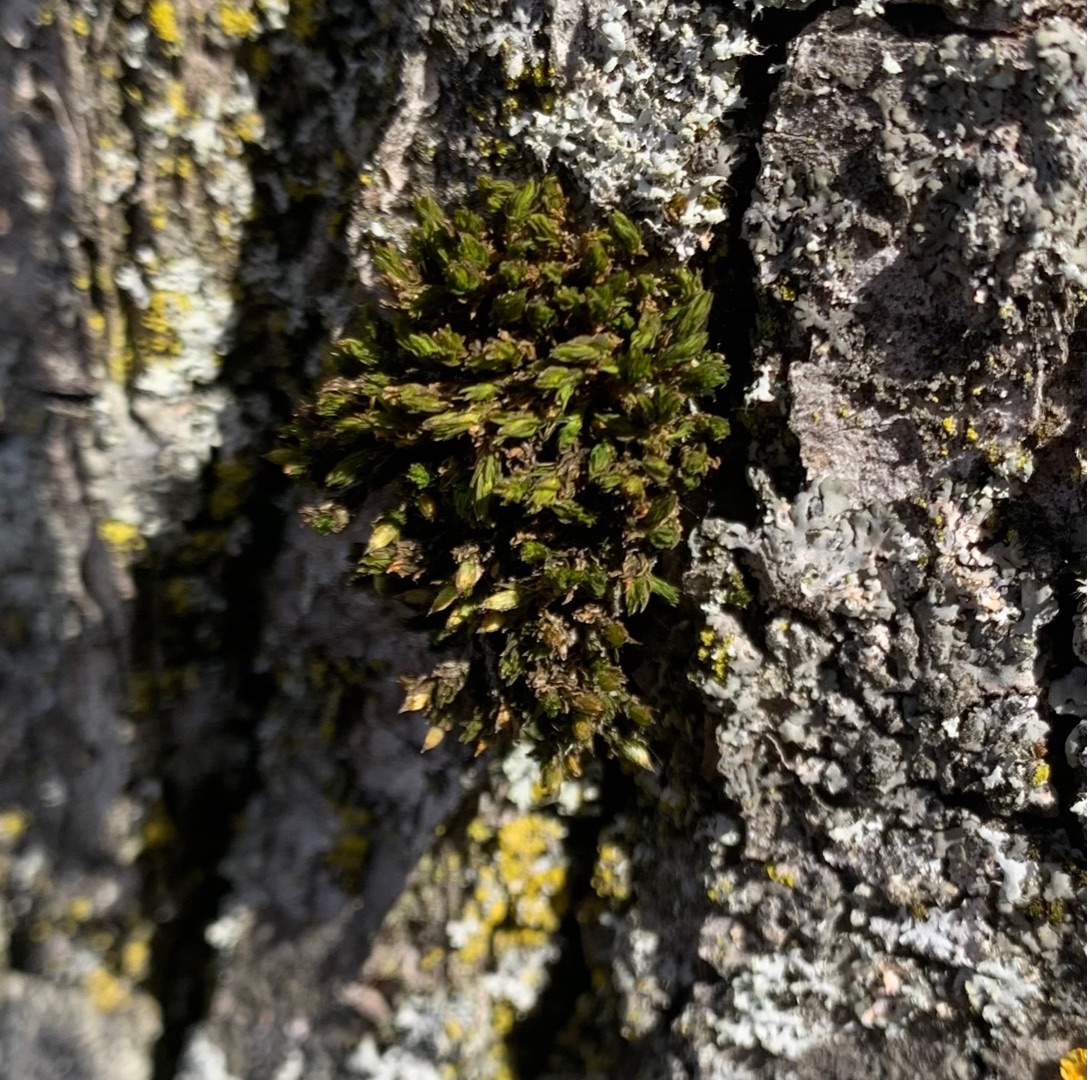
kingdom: Plantae
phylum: Bryophyta
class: Bryopsida
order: Orthotrichales
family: Orthotrichaceae
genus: Lewinskya
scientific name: Lewinskya affinis
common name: Almindelig furehætte
